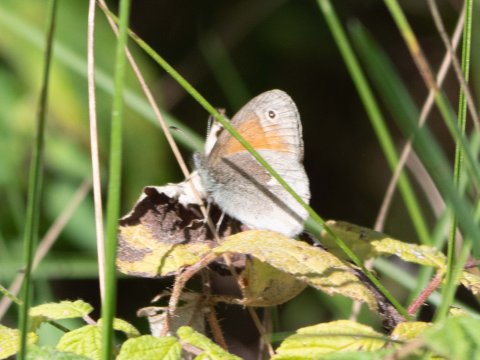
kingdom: Animalia
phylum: Arthropoda
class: Insecta
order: Lepidoptera
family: Nymphalidae
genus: Coenonympha
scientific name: Coenonympha california
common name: California Ringlet
